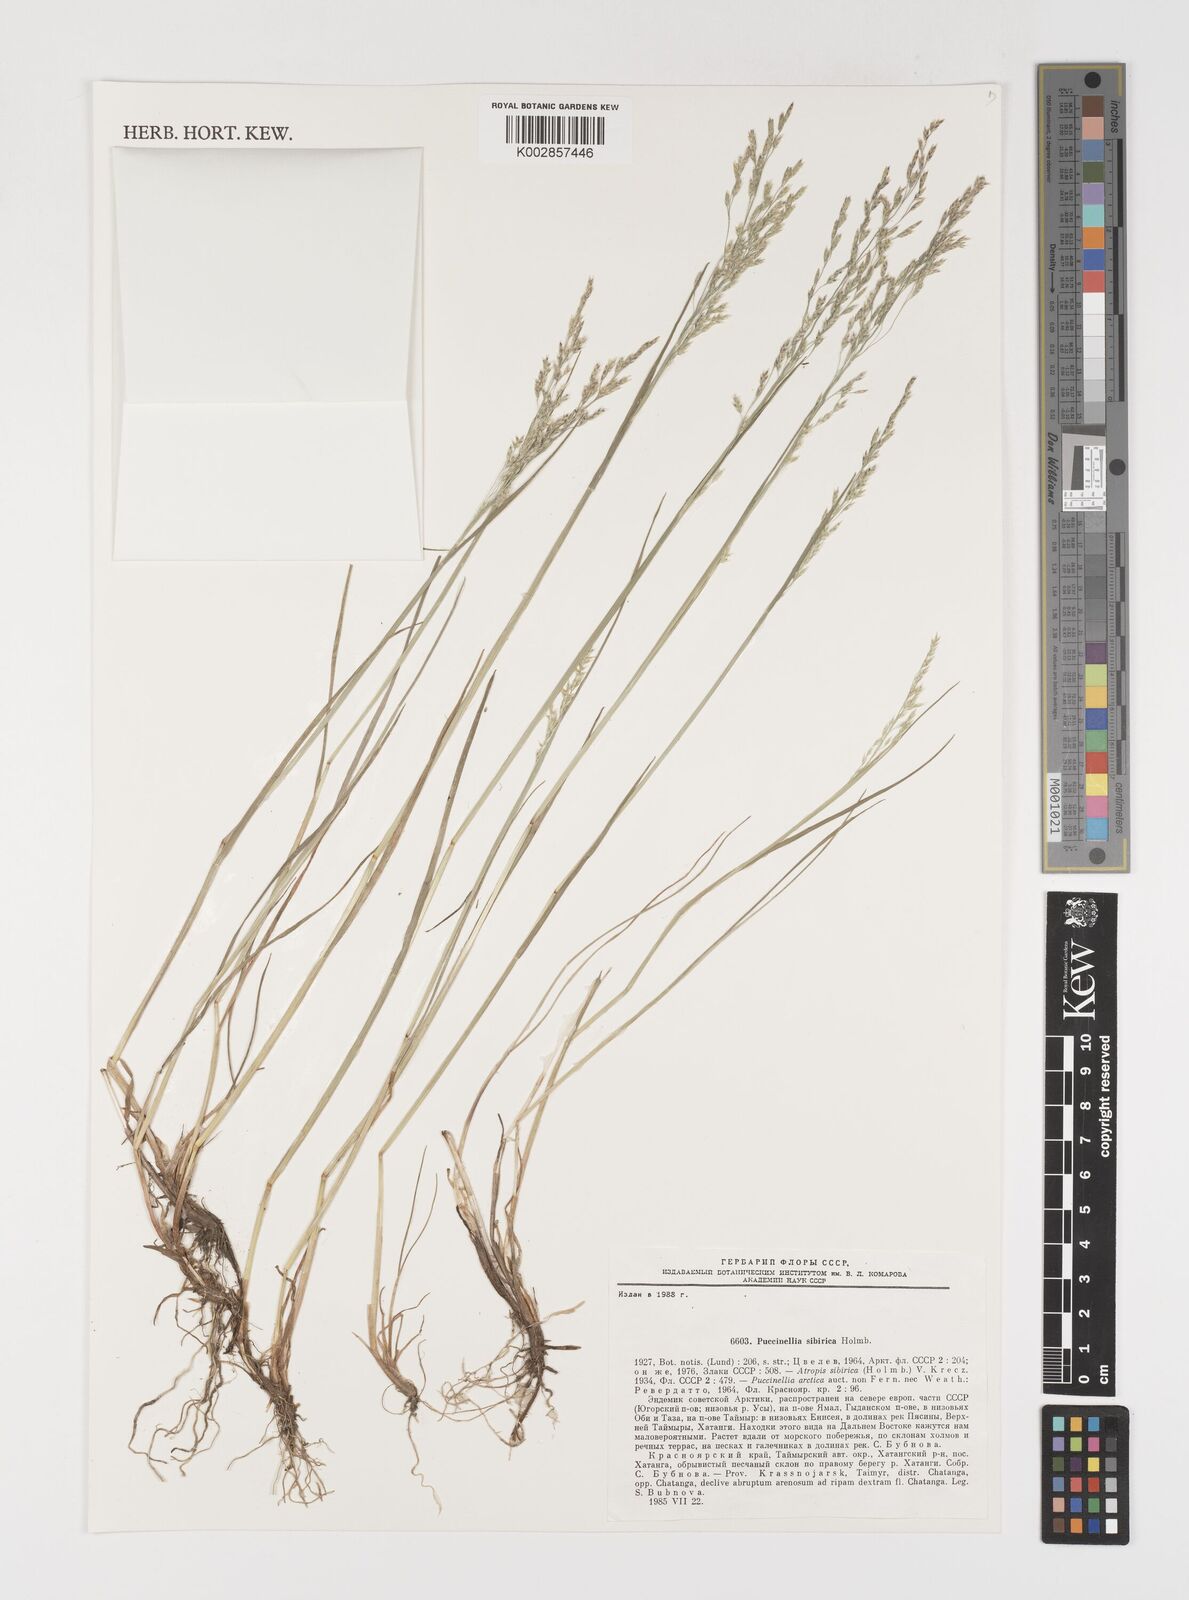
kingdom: Plantae
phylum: Tracheophyta
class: Liliopsida
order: Poales
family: Poaceae
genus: Puccinellia
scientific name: Puccinellia sibirica
